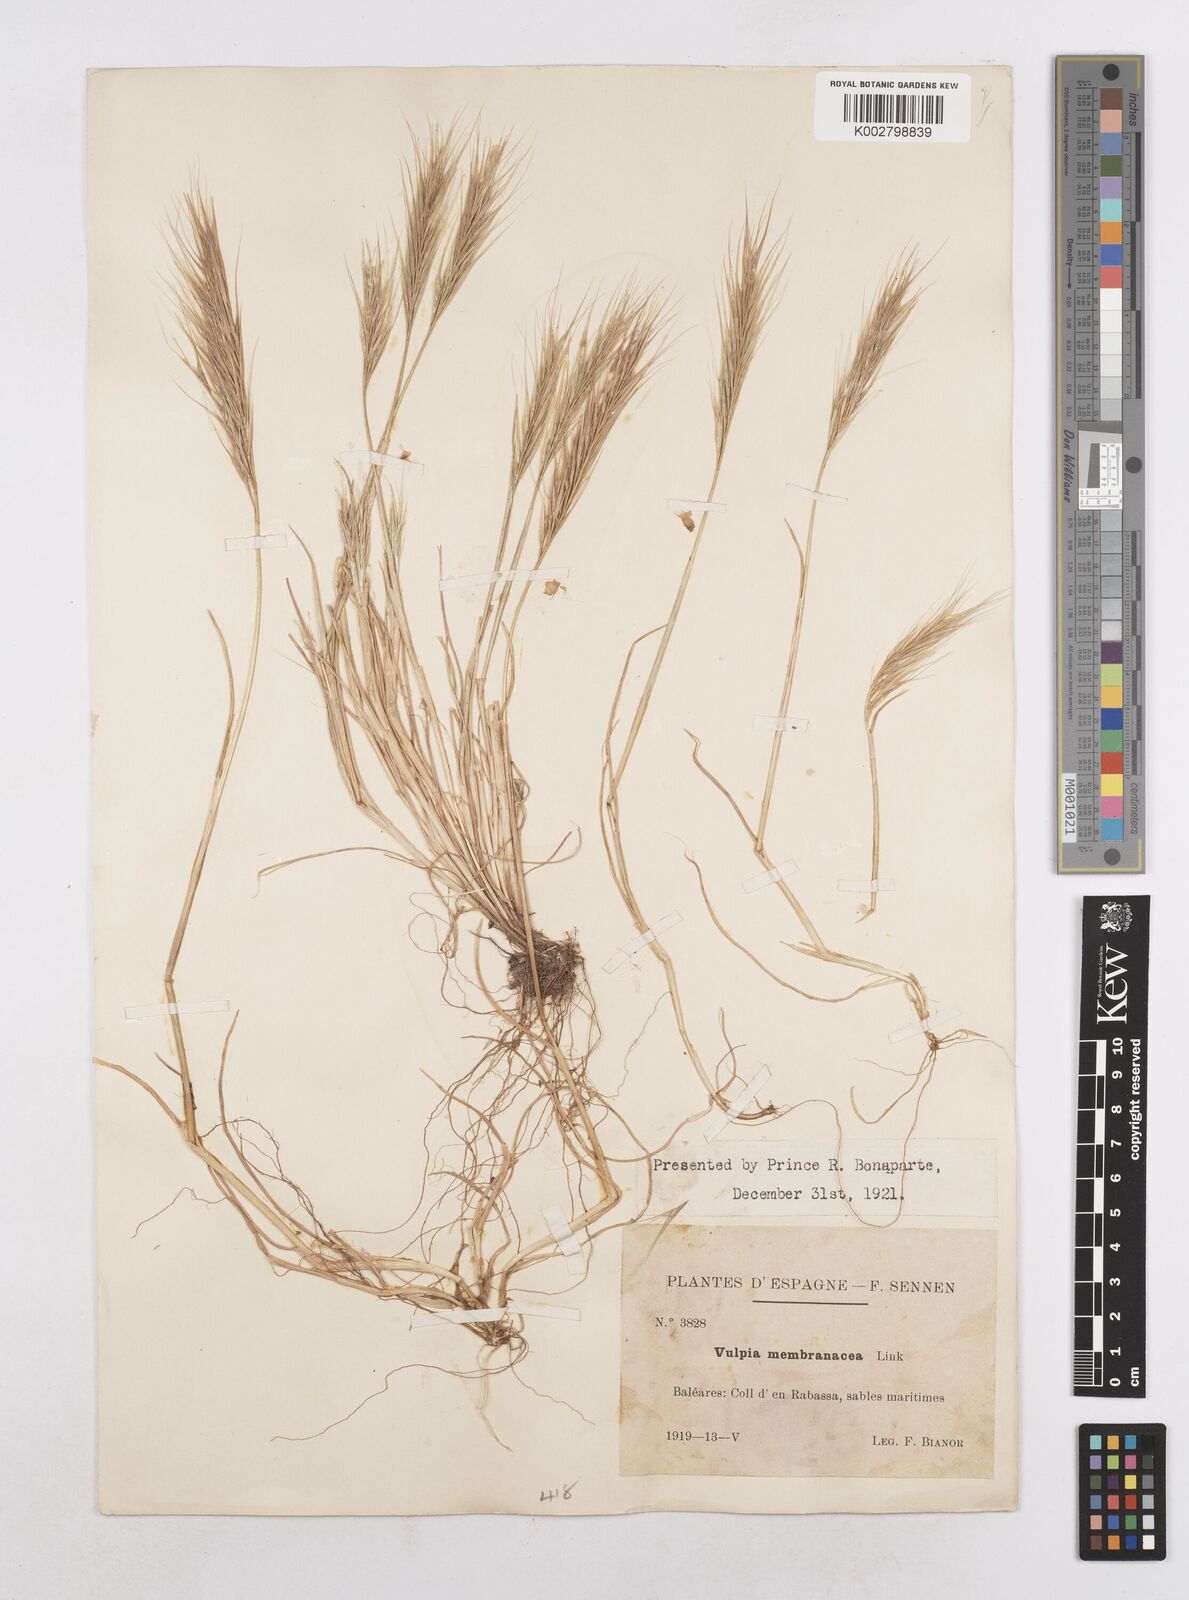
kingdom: Plantae
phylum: Tracheophyta
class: Liliopsida
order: Poales
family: Poaceae
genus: Festuca
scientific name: Festuca membranacea
